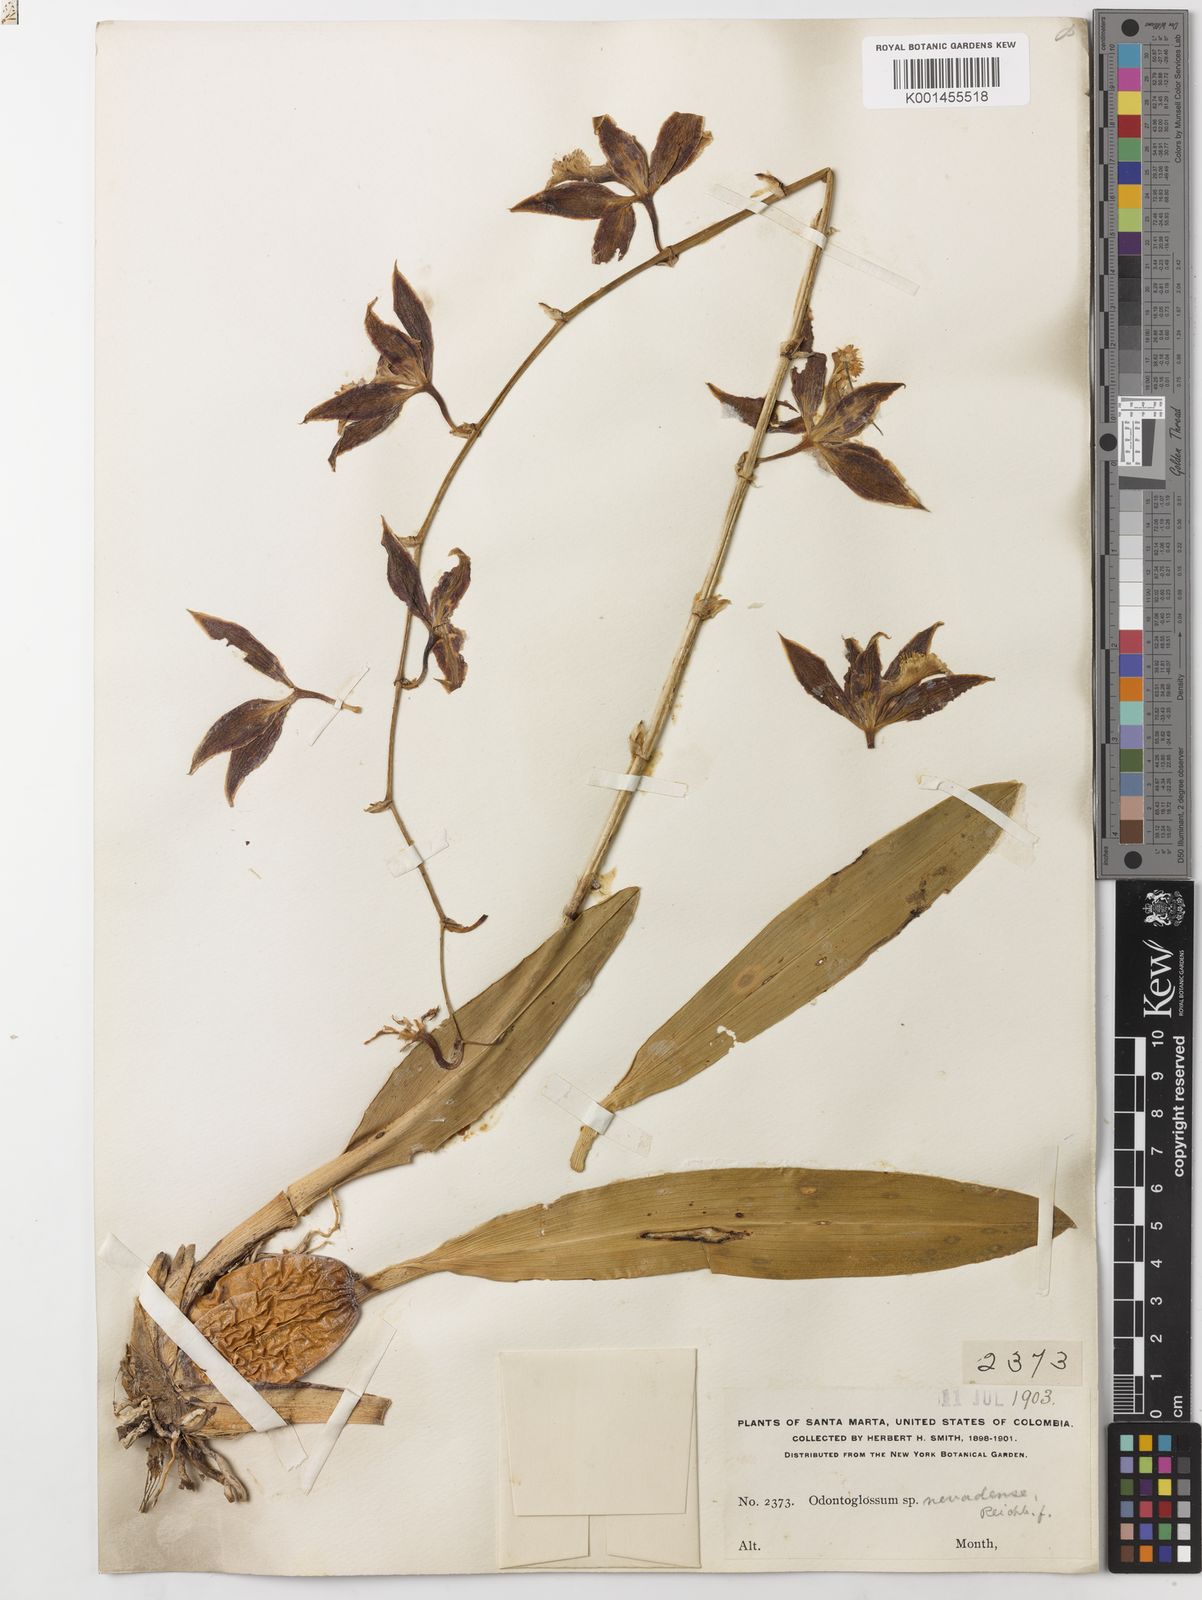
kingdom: Plantae
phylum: Tracheophyta
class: Liliopsida
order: Asparagales
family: Orchidaceae
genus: Oncidium
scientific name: Oncidium nevadense
